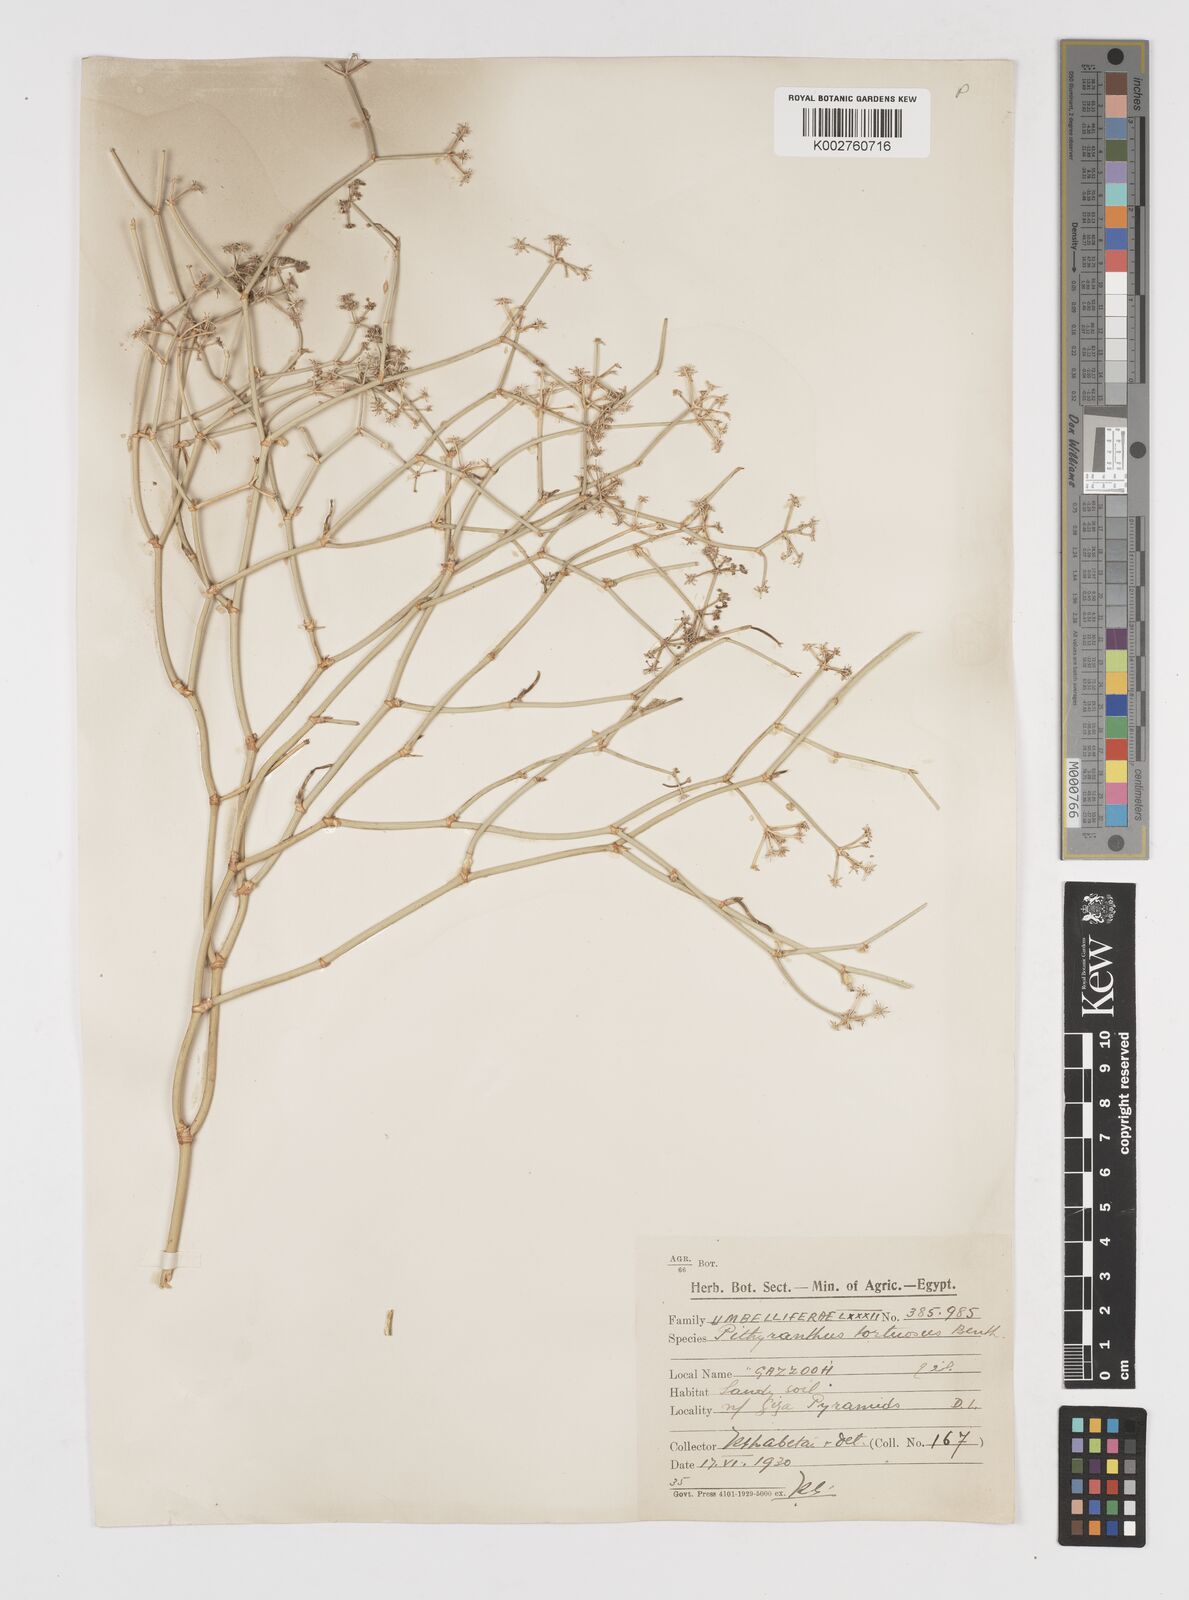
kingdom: Plantae
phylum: Tracheophyta
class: Magnoliopsida
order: Apiales
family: Apiaceae
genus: Deverra
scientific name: Deverra denudata
